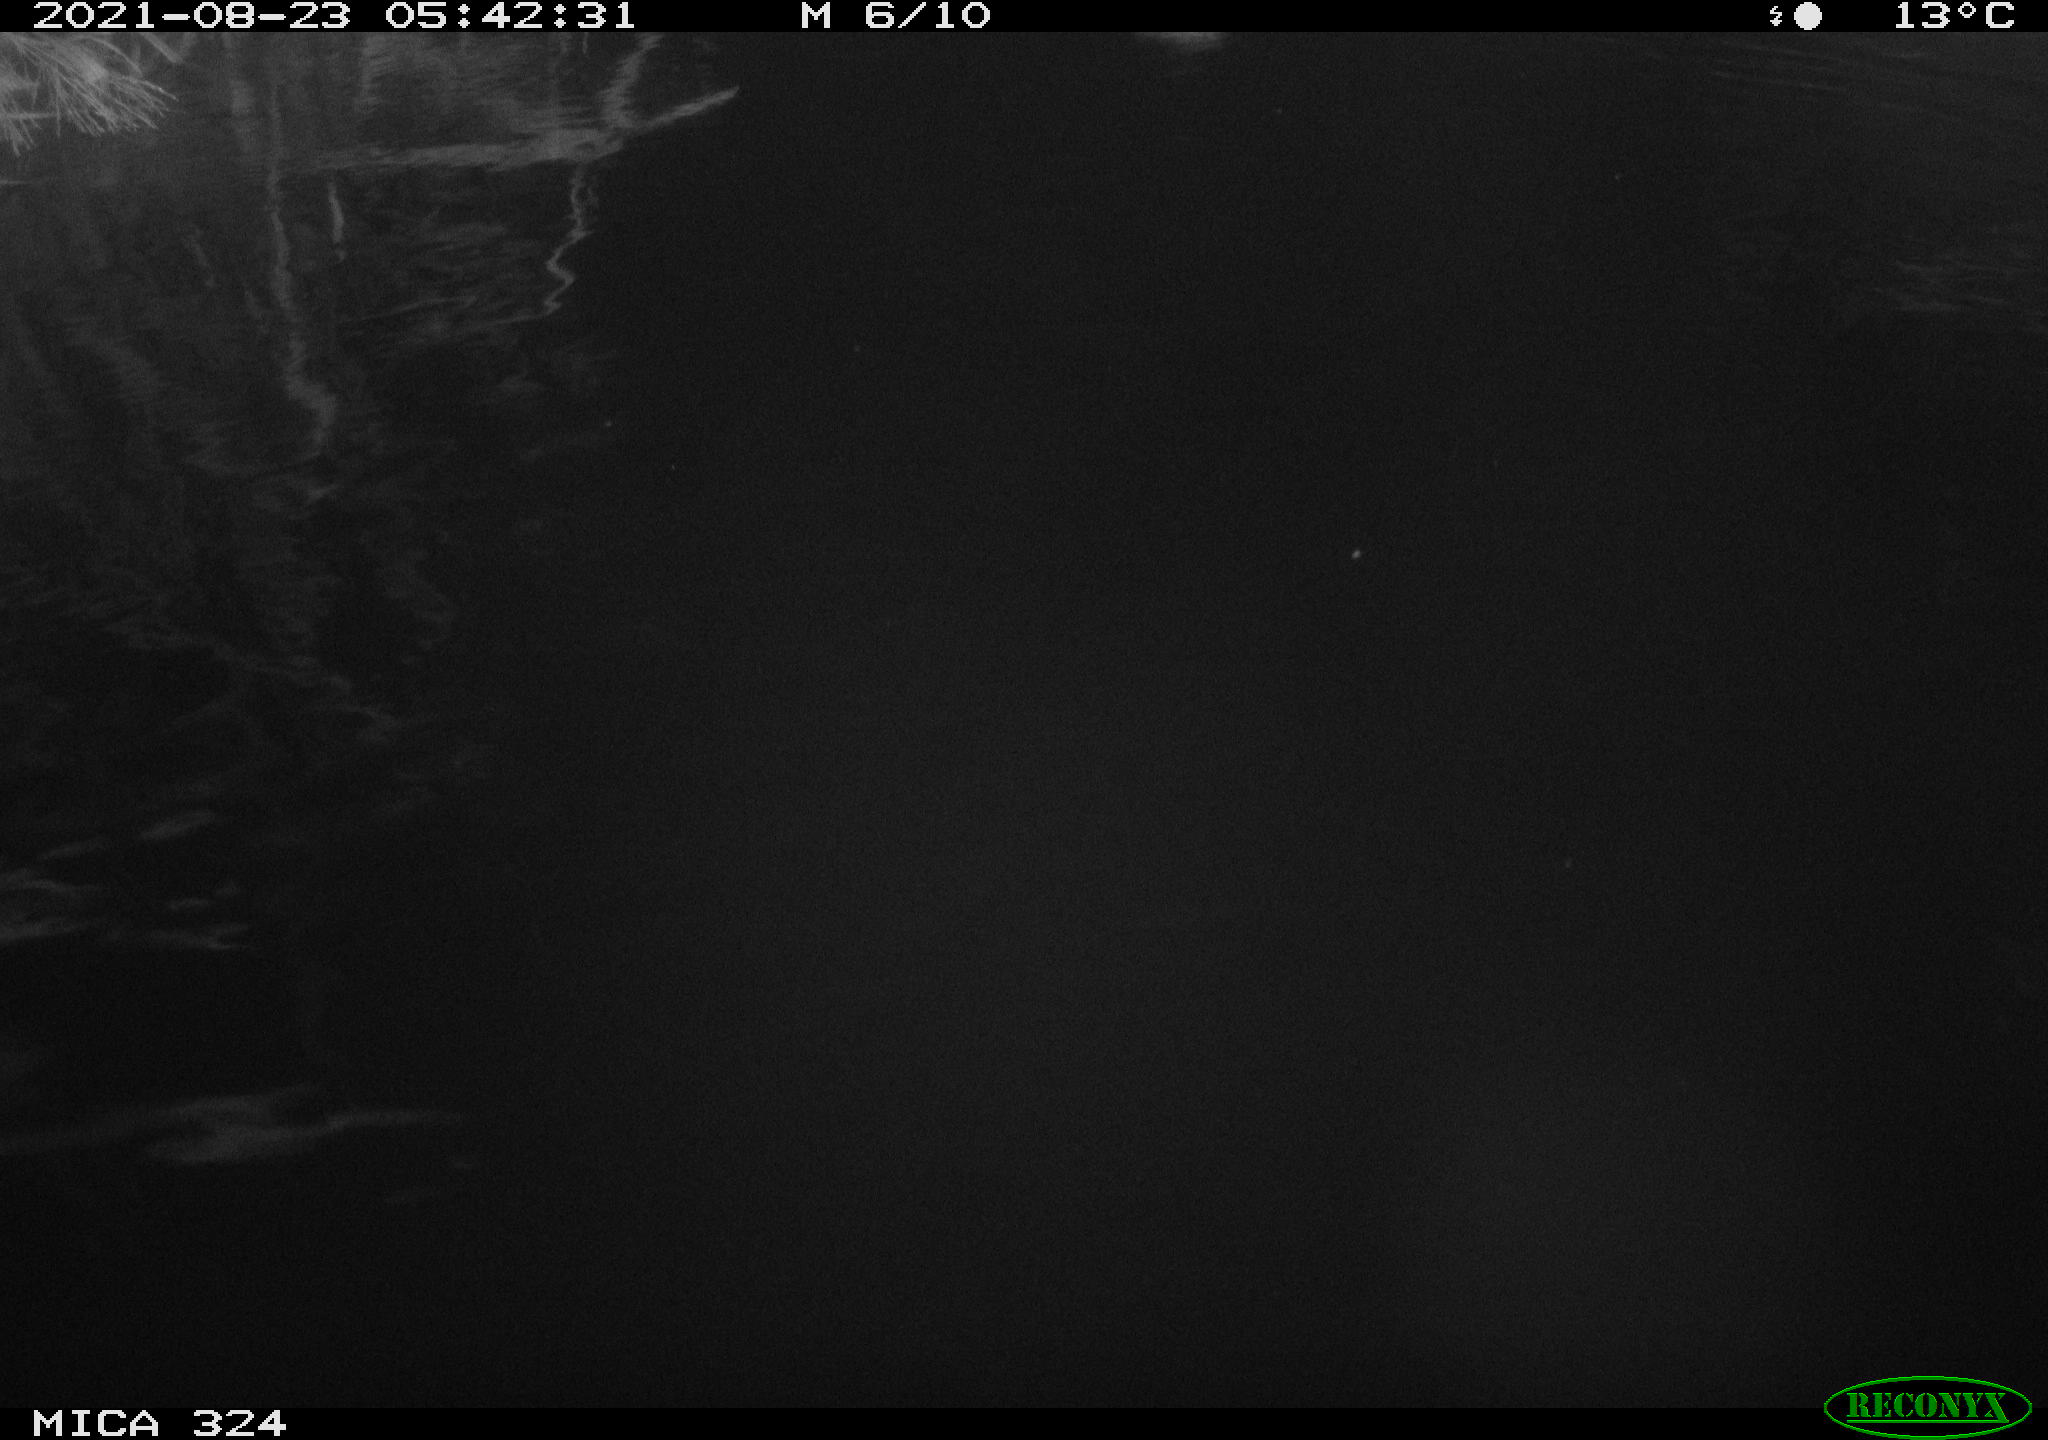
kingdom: Animalia
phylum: Chordata
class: Aves
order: Anseriformes
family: Anatidae
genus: Anas
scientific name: Anas platyrhynchos
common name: Mallard
